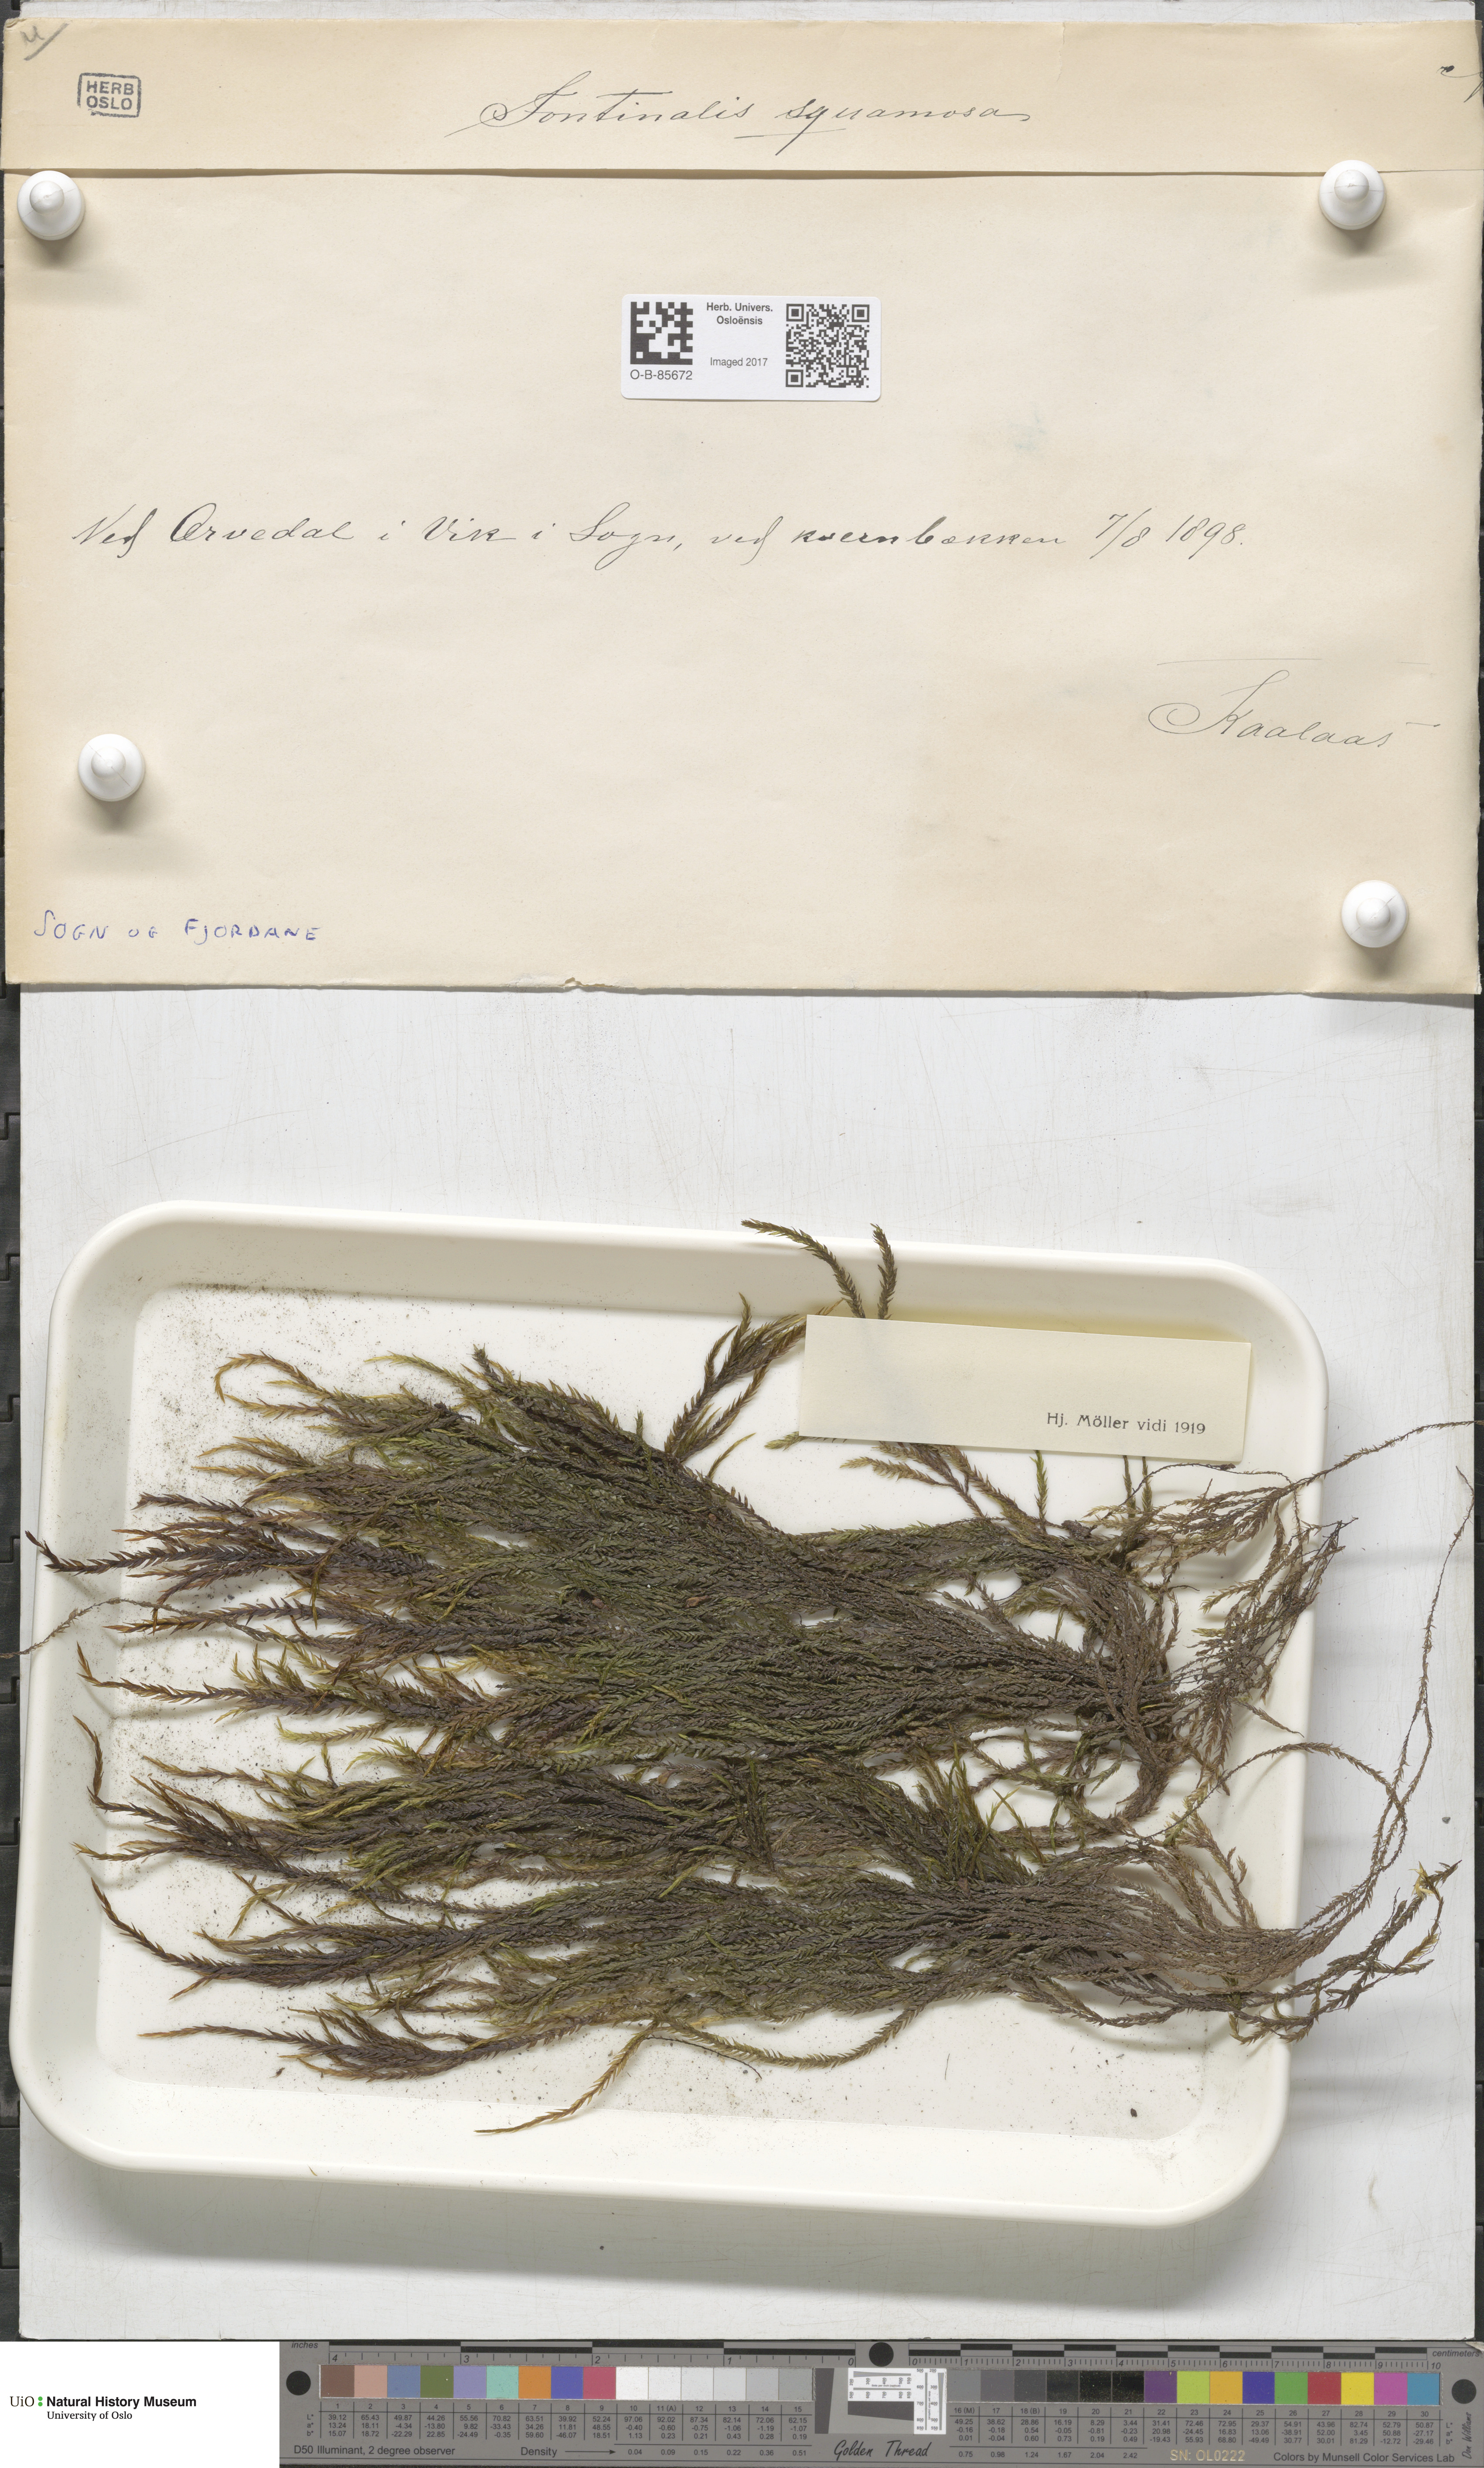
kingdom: Plantae
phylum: Bryophyta
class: Bryopsida
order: Hypnales
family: Fontinalaceae
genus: Fontinalis
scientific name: Fontinalis squamosa
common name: Alpine water-moss
